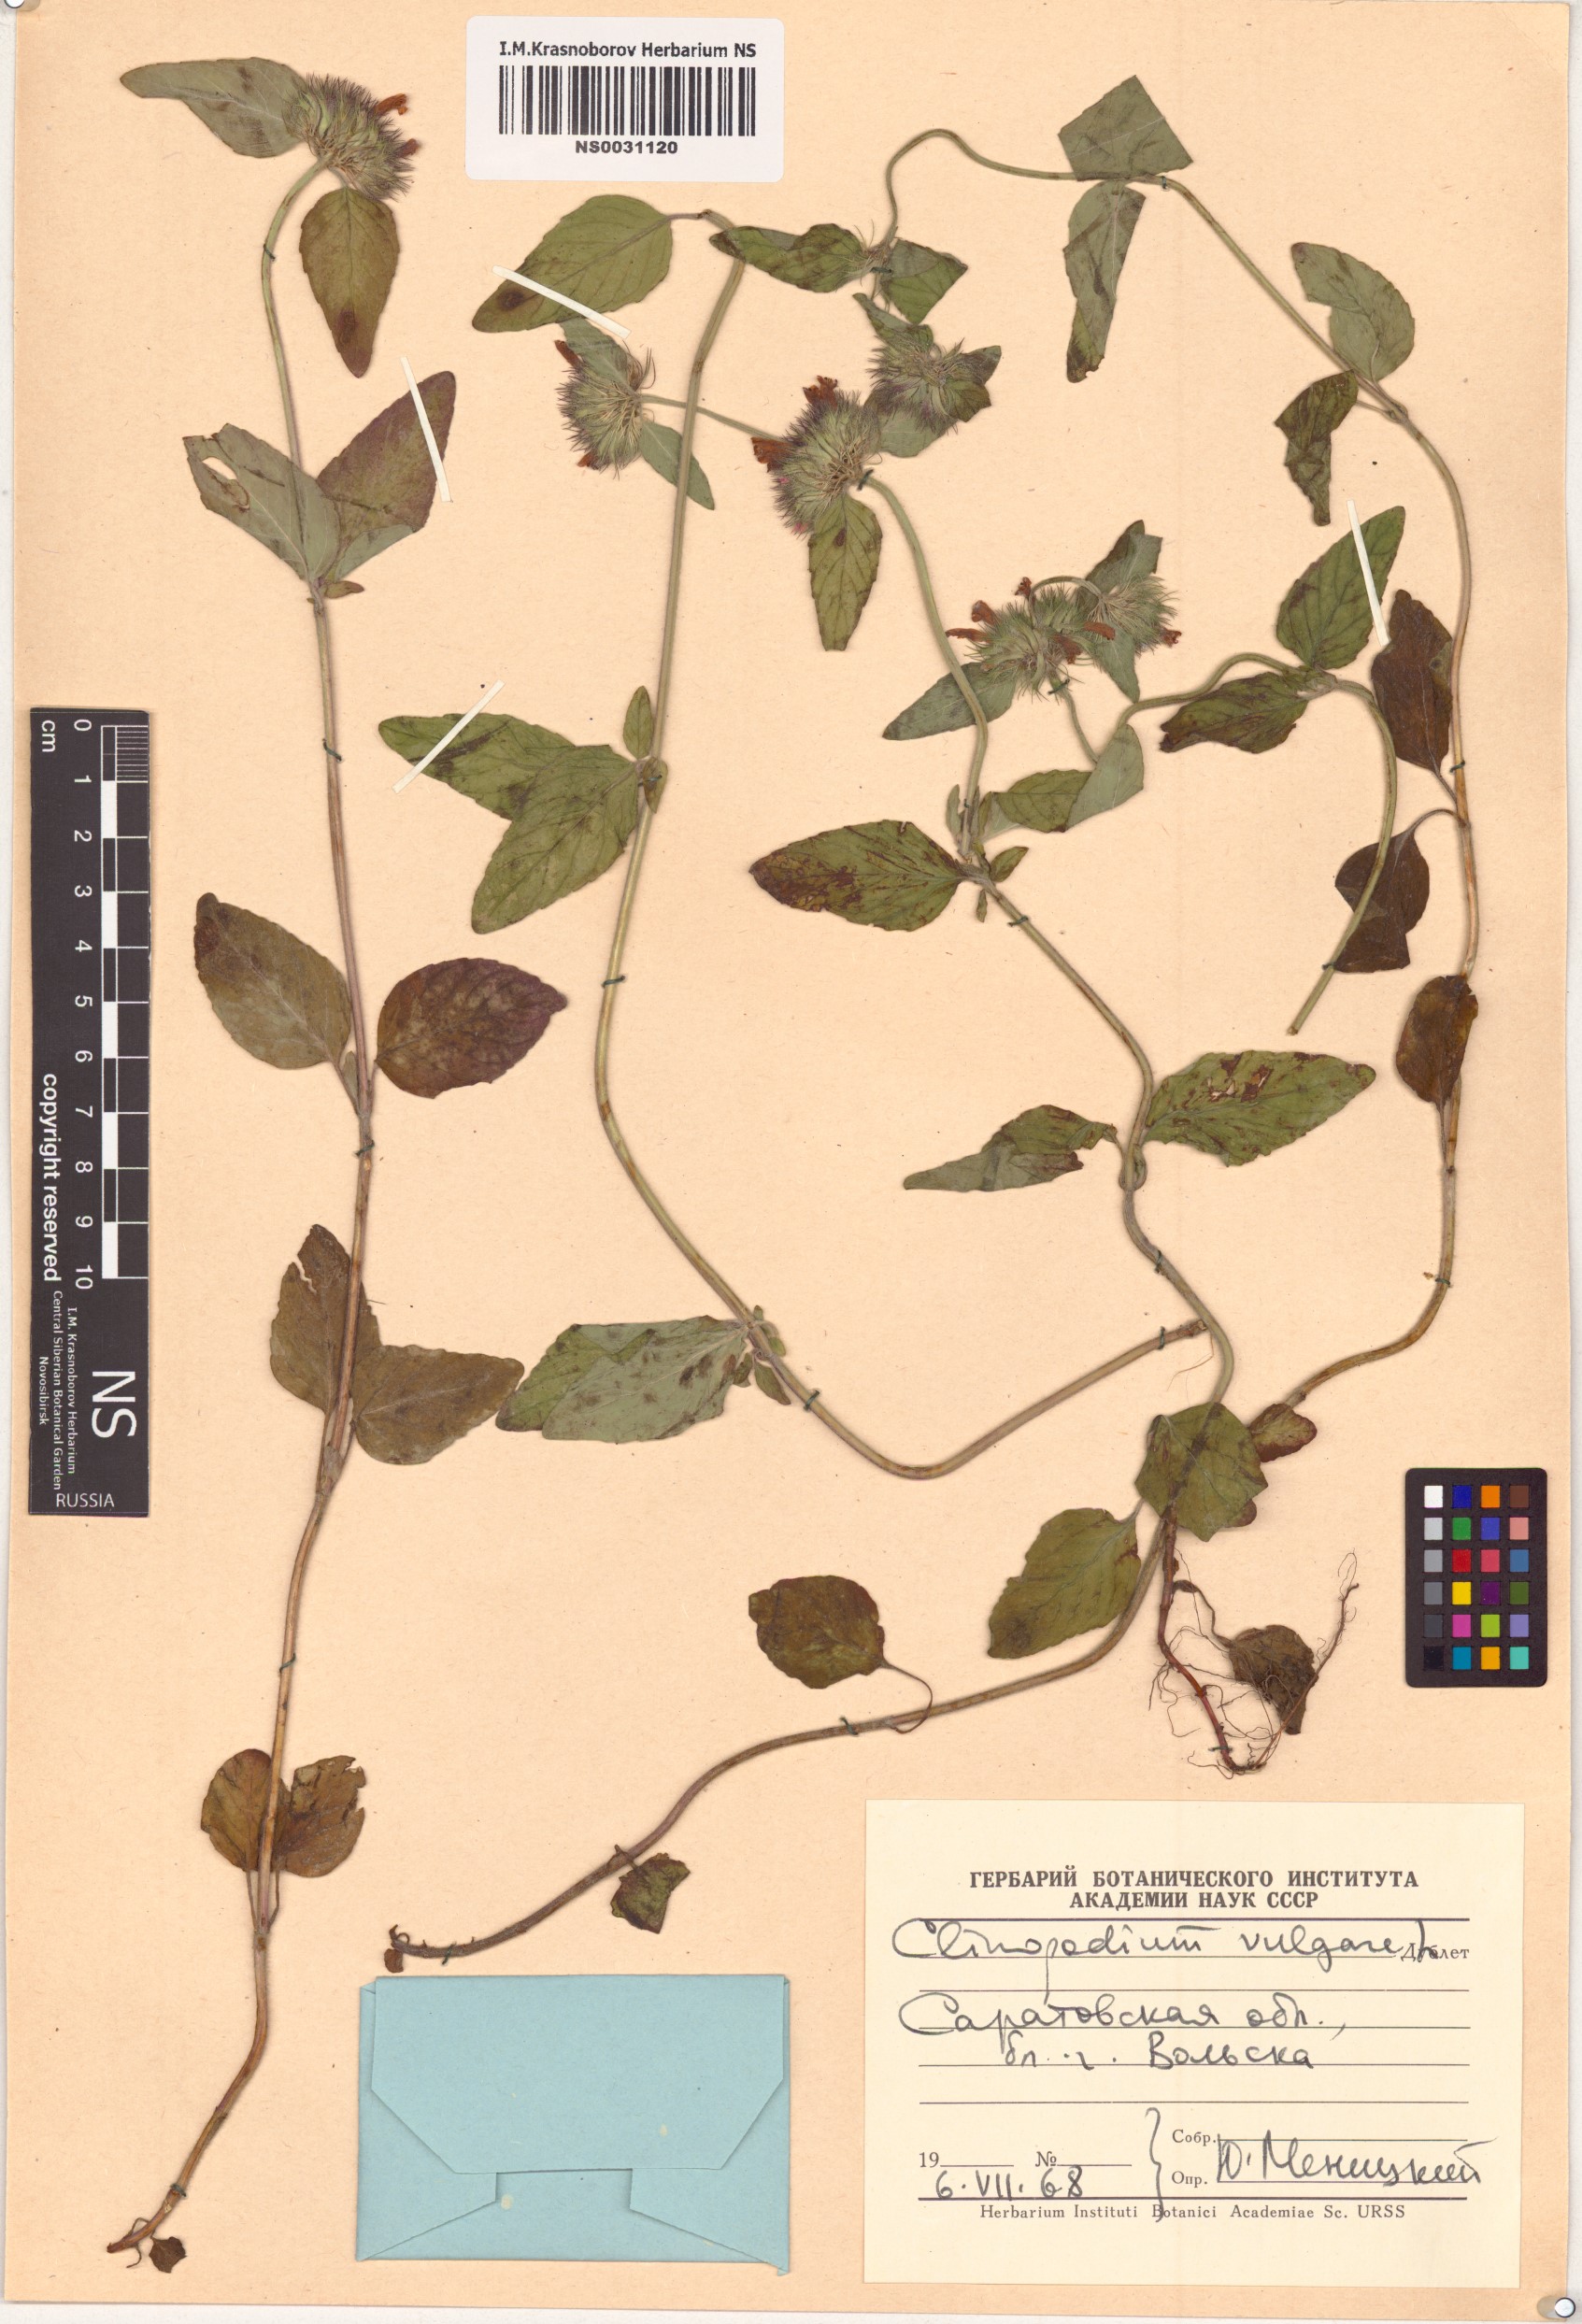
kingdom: Plantae
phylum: Tracheophyta
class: Magnoliopsida
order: Lamiales
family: Lamiaceae
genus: Clinopodium
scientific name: Clinopodium vulgare
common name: Wild basil
